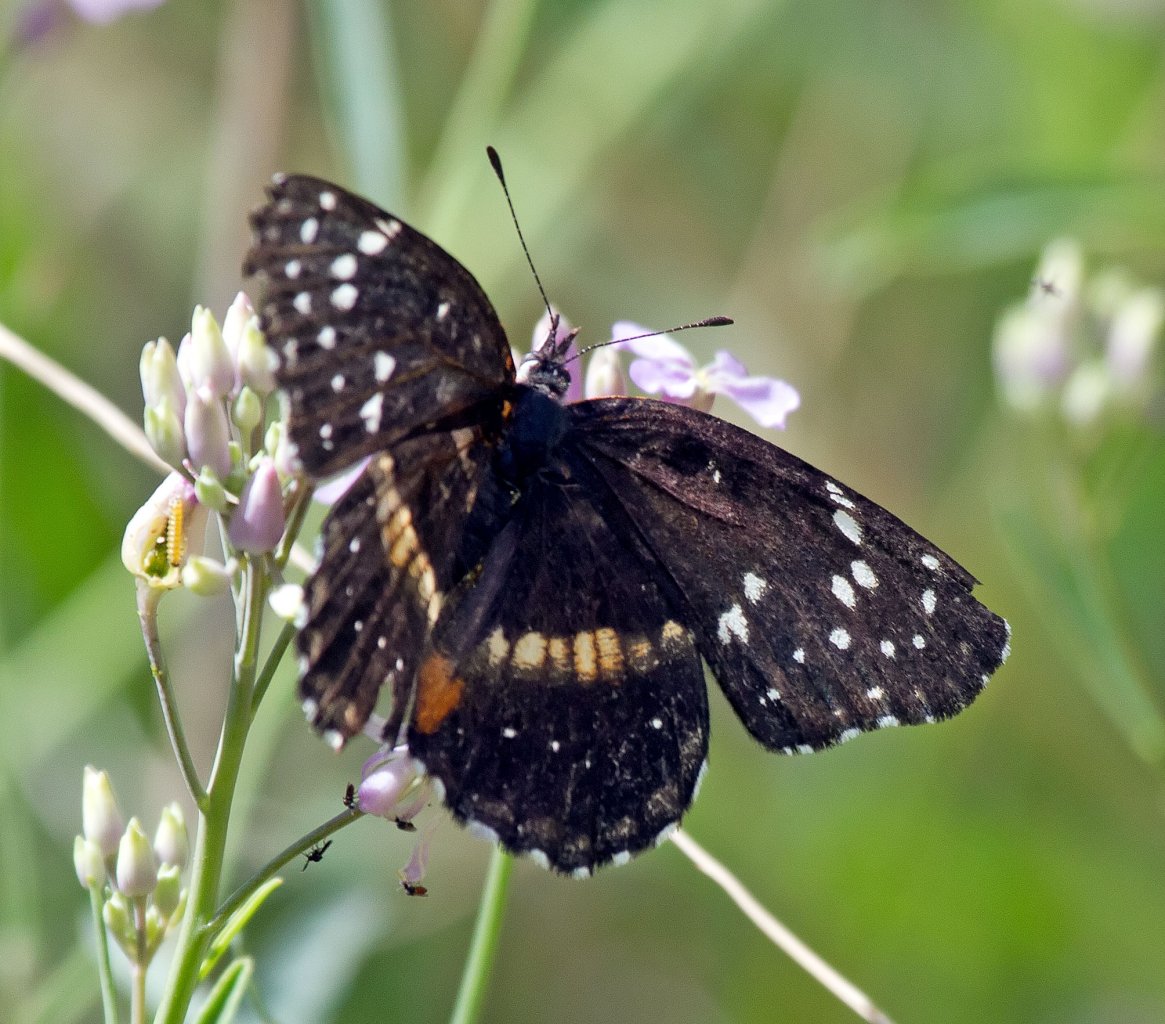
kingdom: Animalia
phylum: Arthropoda
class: Insecta
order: Lepidoptera
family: Nymphalidae
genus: Chlosyne
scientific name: Chlosyne lacinia
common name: Bordered Patch
